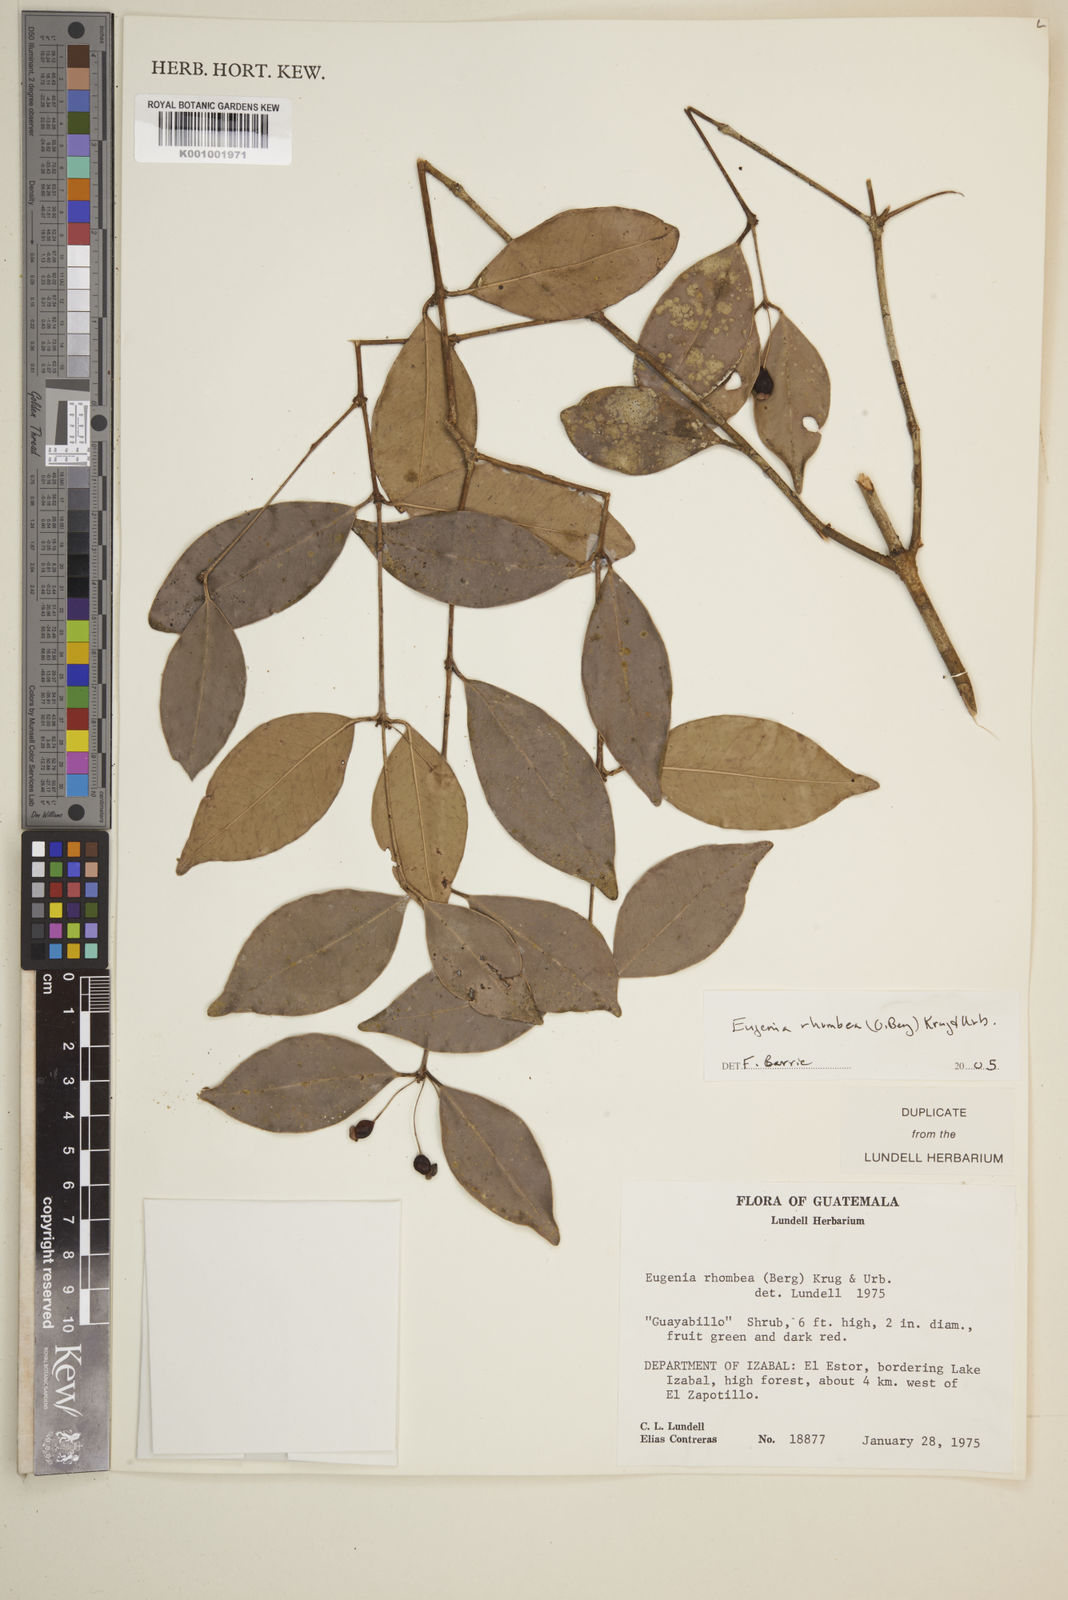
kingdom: Plantae
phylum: Tracheophyta
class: Magnoliopsida
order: Myrtales
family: Myrtaceae
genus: Eugenia
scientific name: Eugenia rhombea
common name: Pigeon berry
